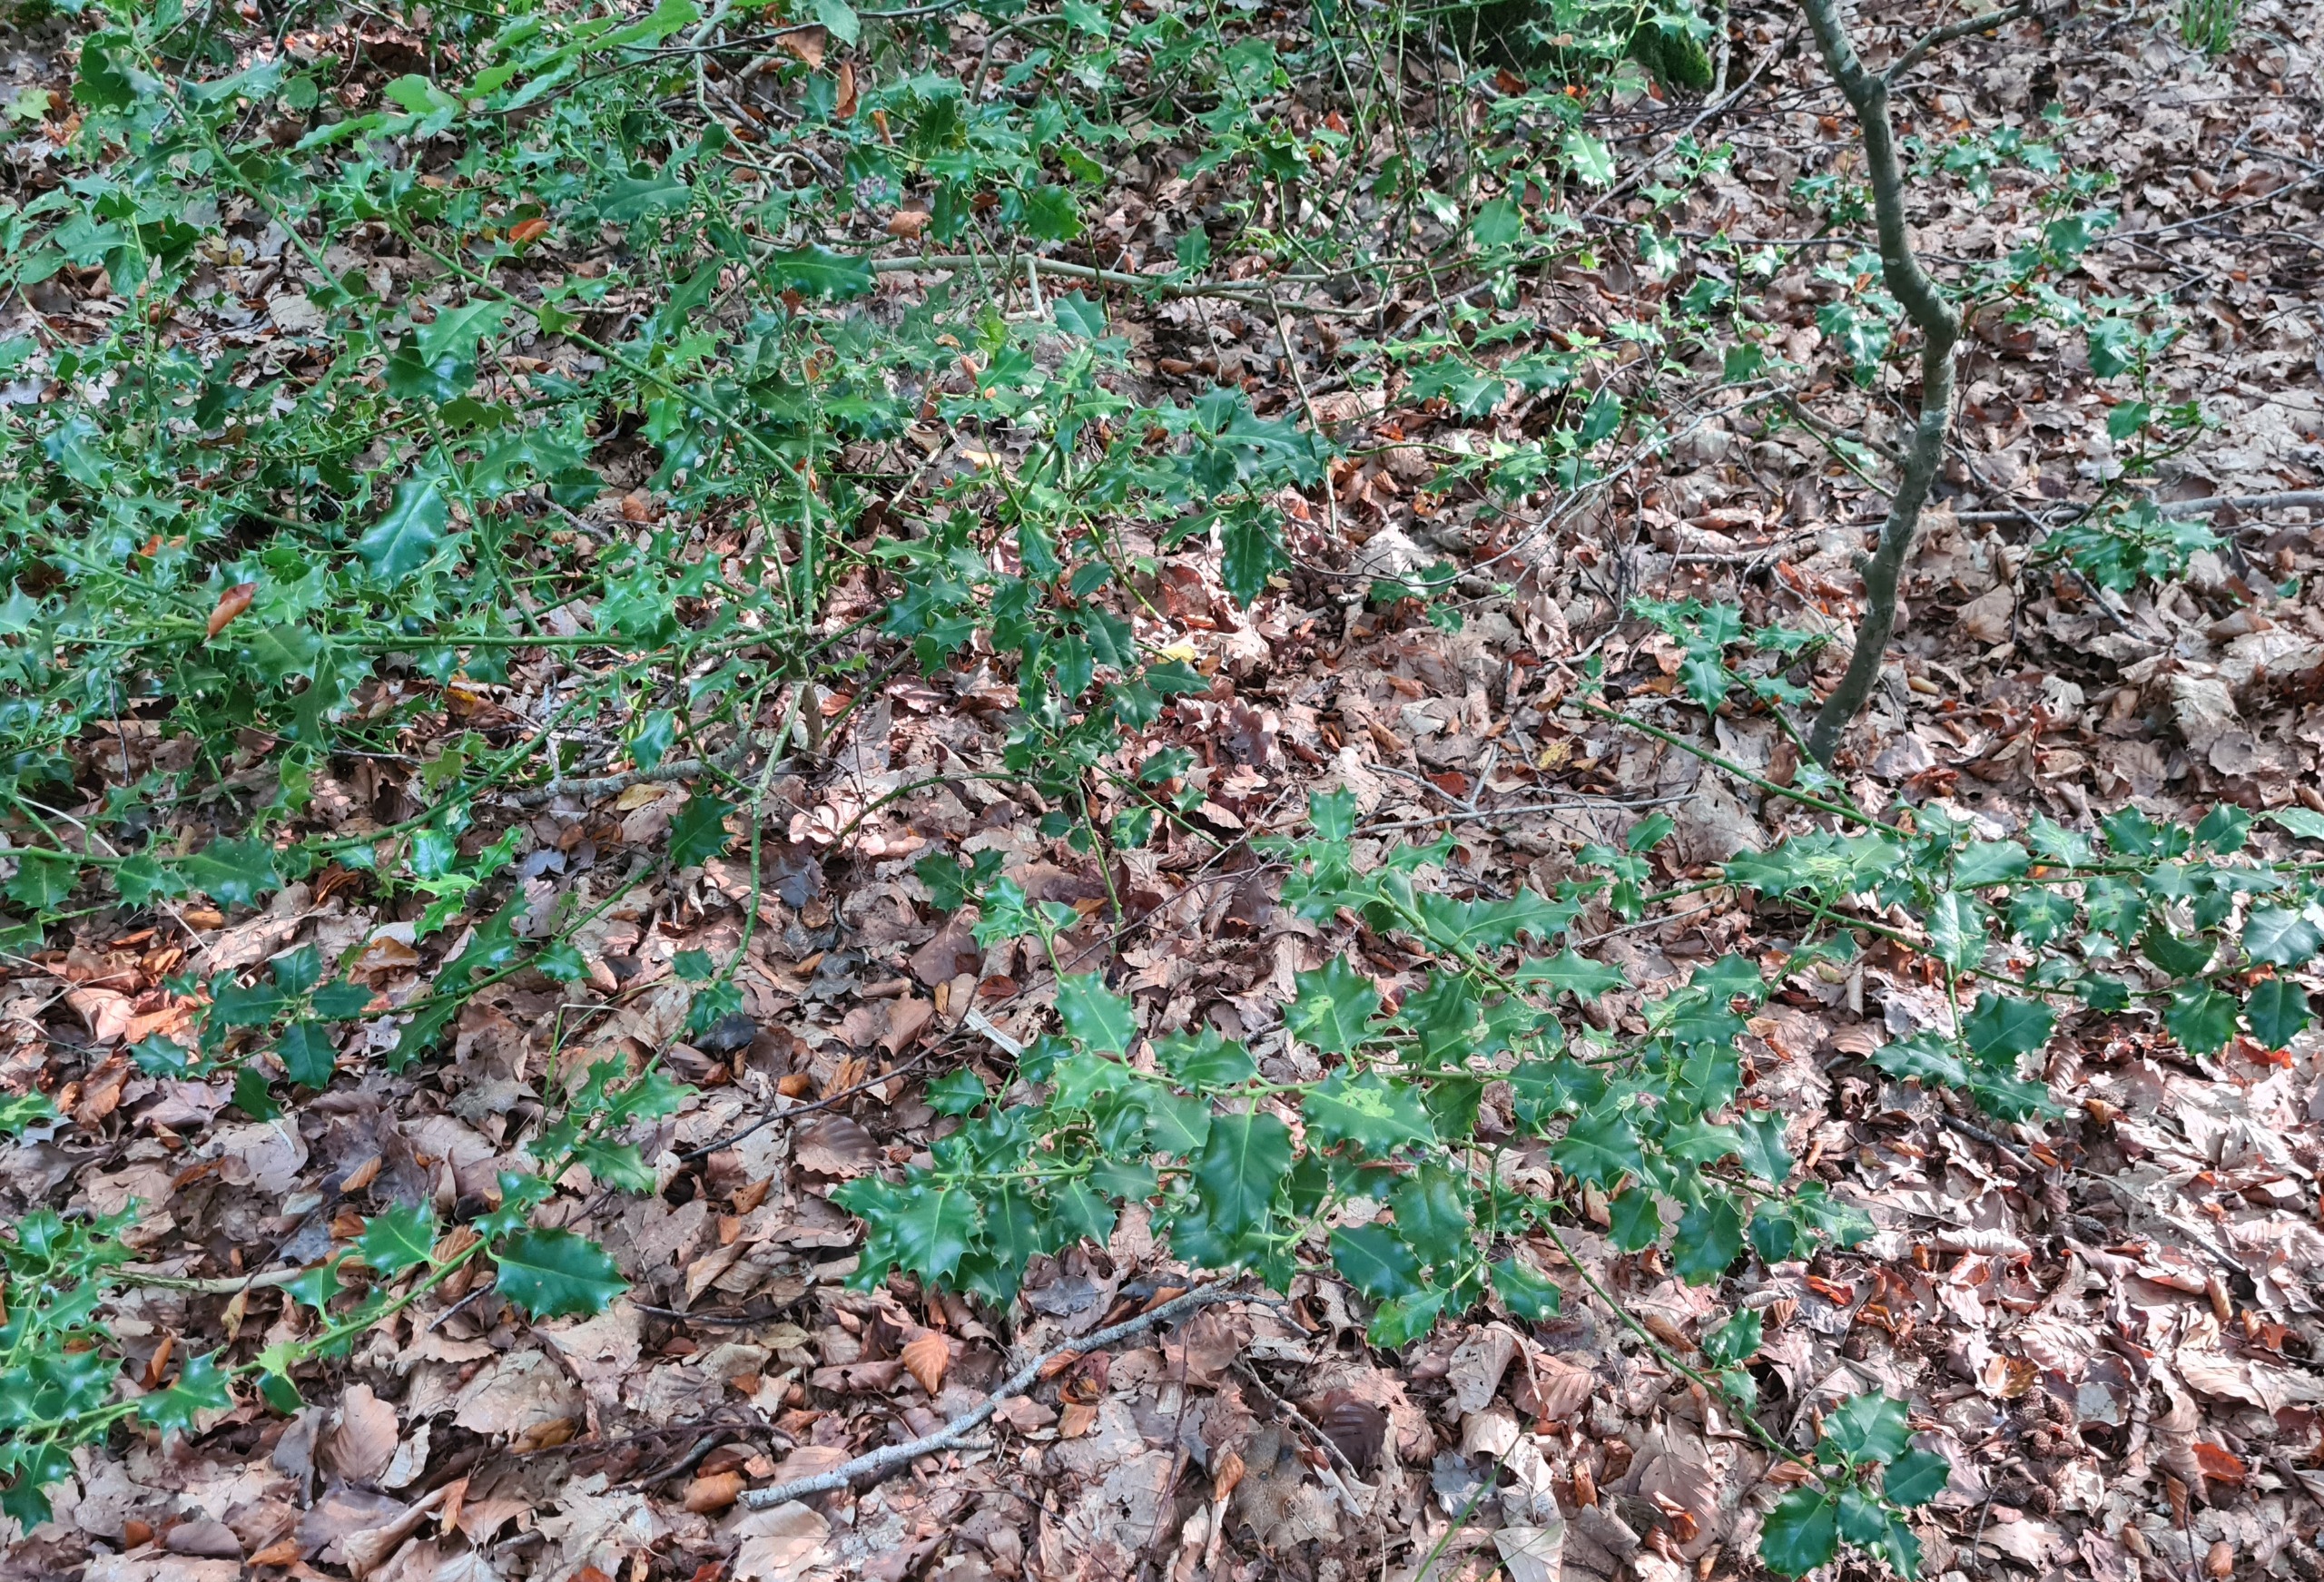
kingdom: Plantae
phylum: Tracheophyta
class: Magnoliopsida
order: Aquifoliales
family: Aquifoliaceae
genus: Ilex
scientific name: Ilex aquifolium
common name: Kristtorn
